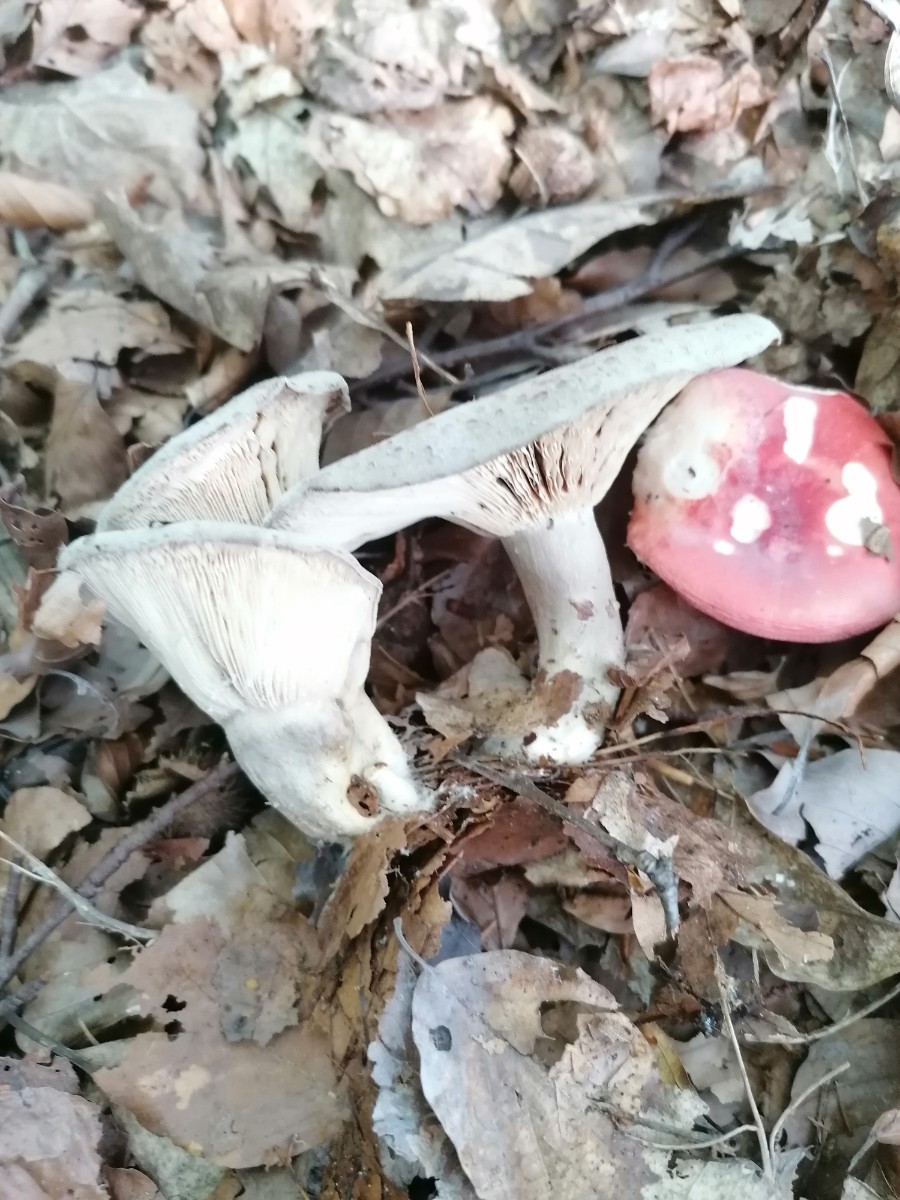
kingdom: Fungi
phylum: Basidiomycota
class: Agaricomycetes
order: Russulales
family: Russulaceae
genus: Lactarius
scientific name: Lactarius blennius
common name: dråbeplettet mælkehat
